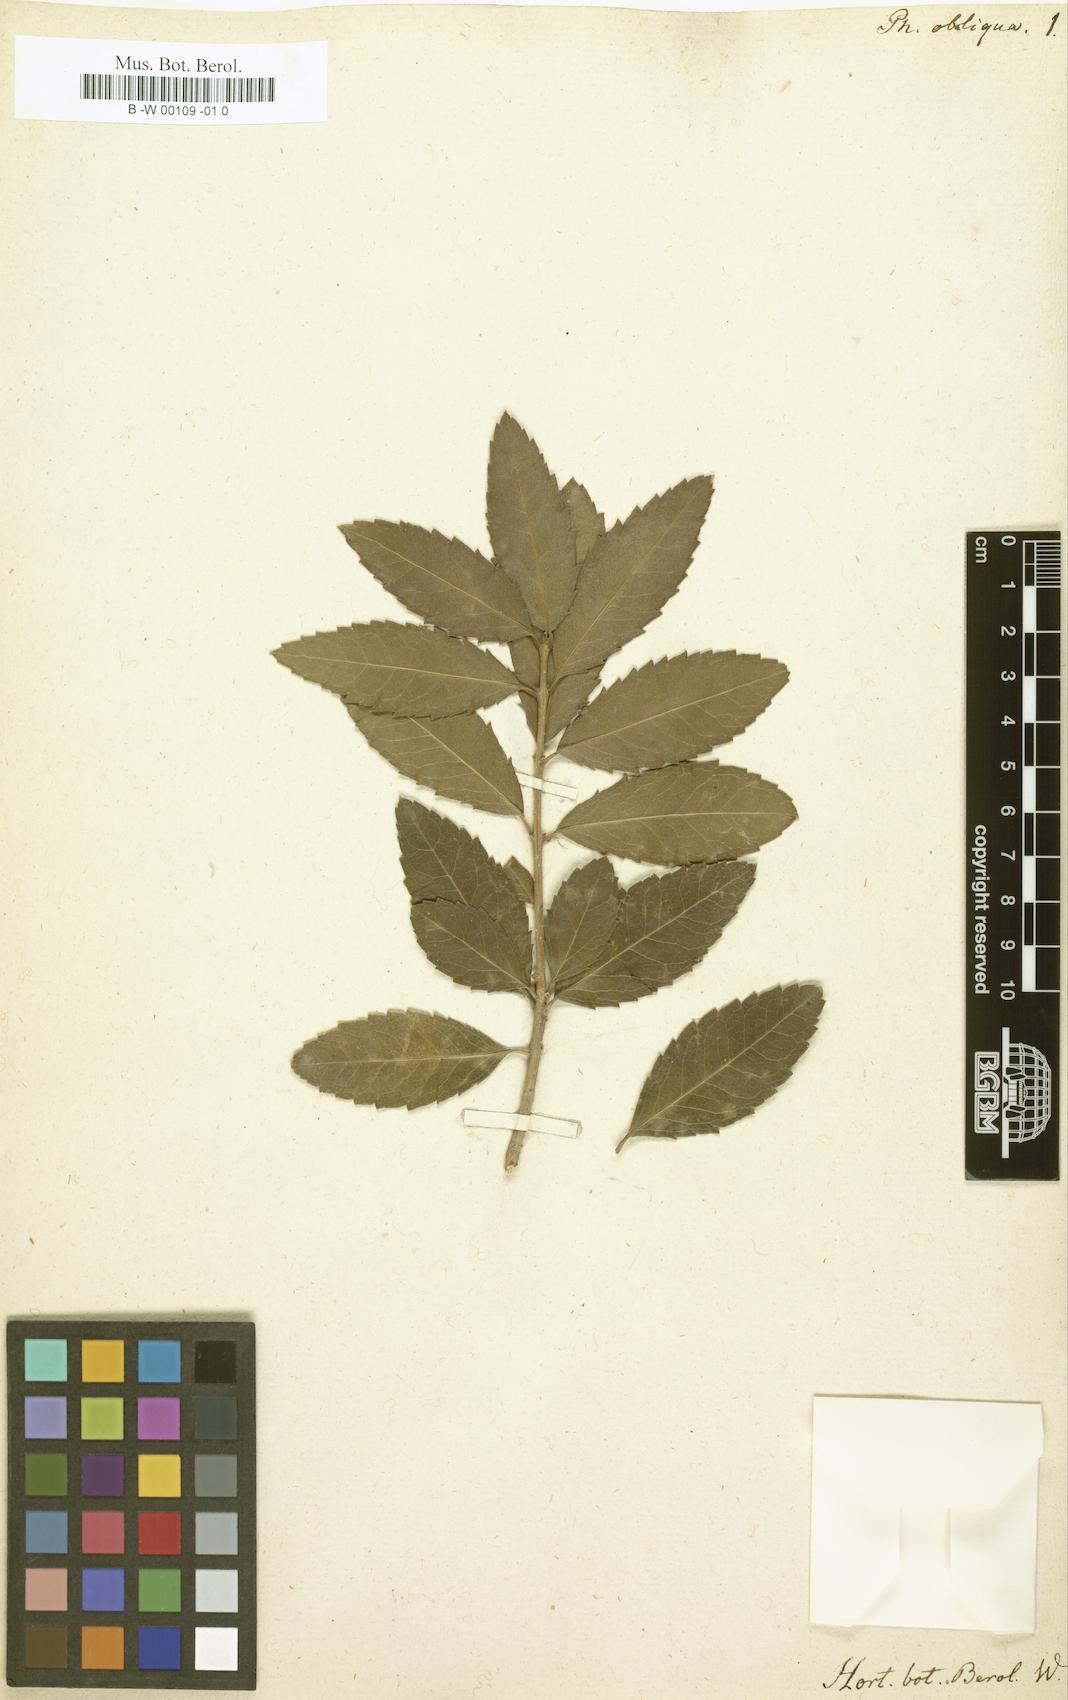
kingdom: Plantae
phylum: Tracheophyta
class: Magnoliopsida
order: Lamiales
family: Oleaceae
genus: Phillyrea
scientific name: Phillyrea latifolia
